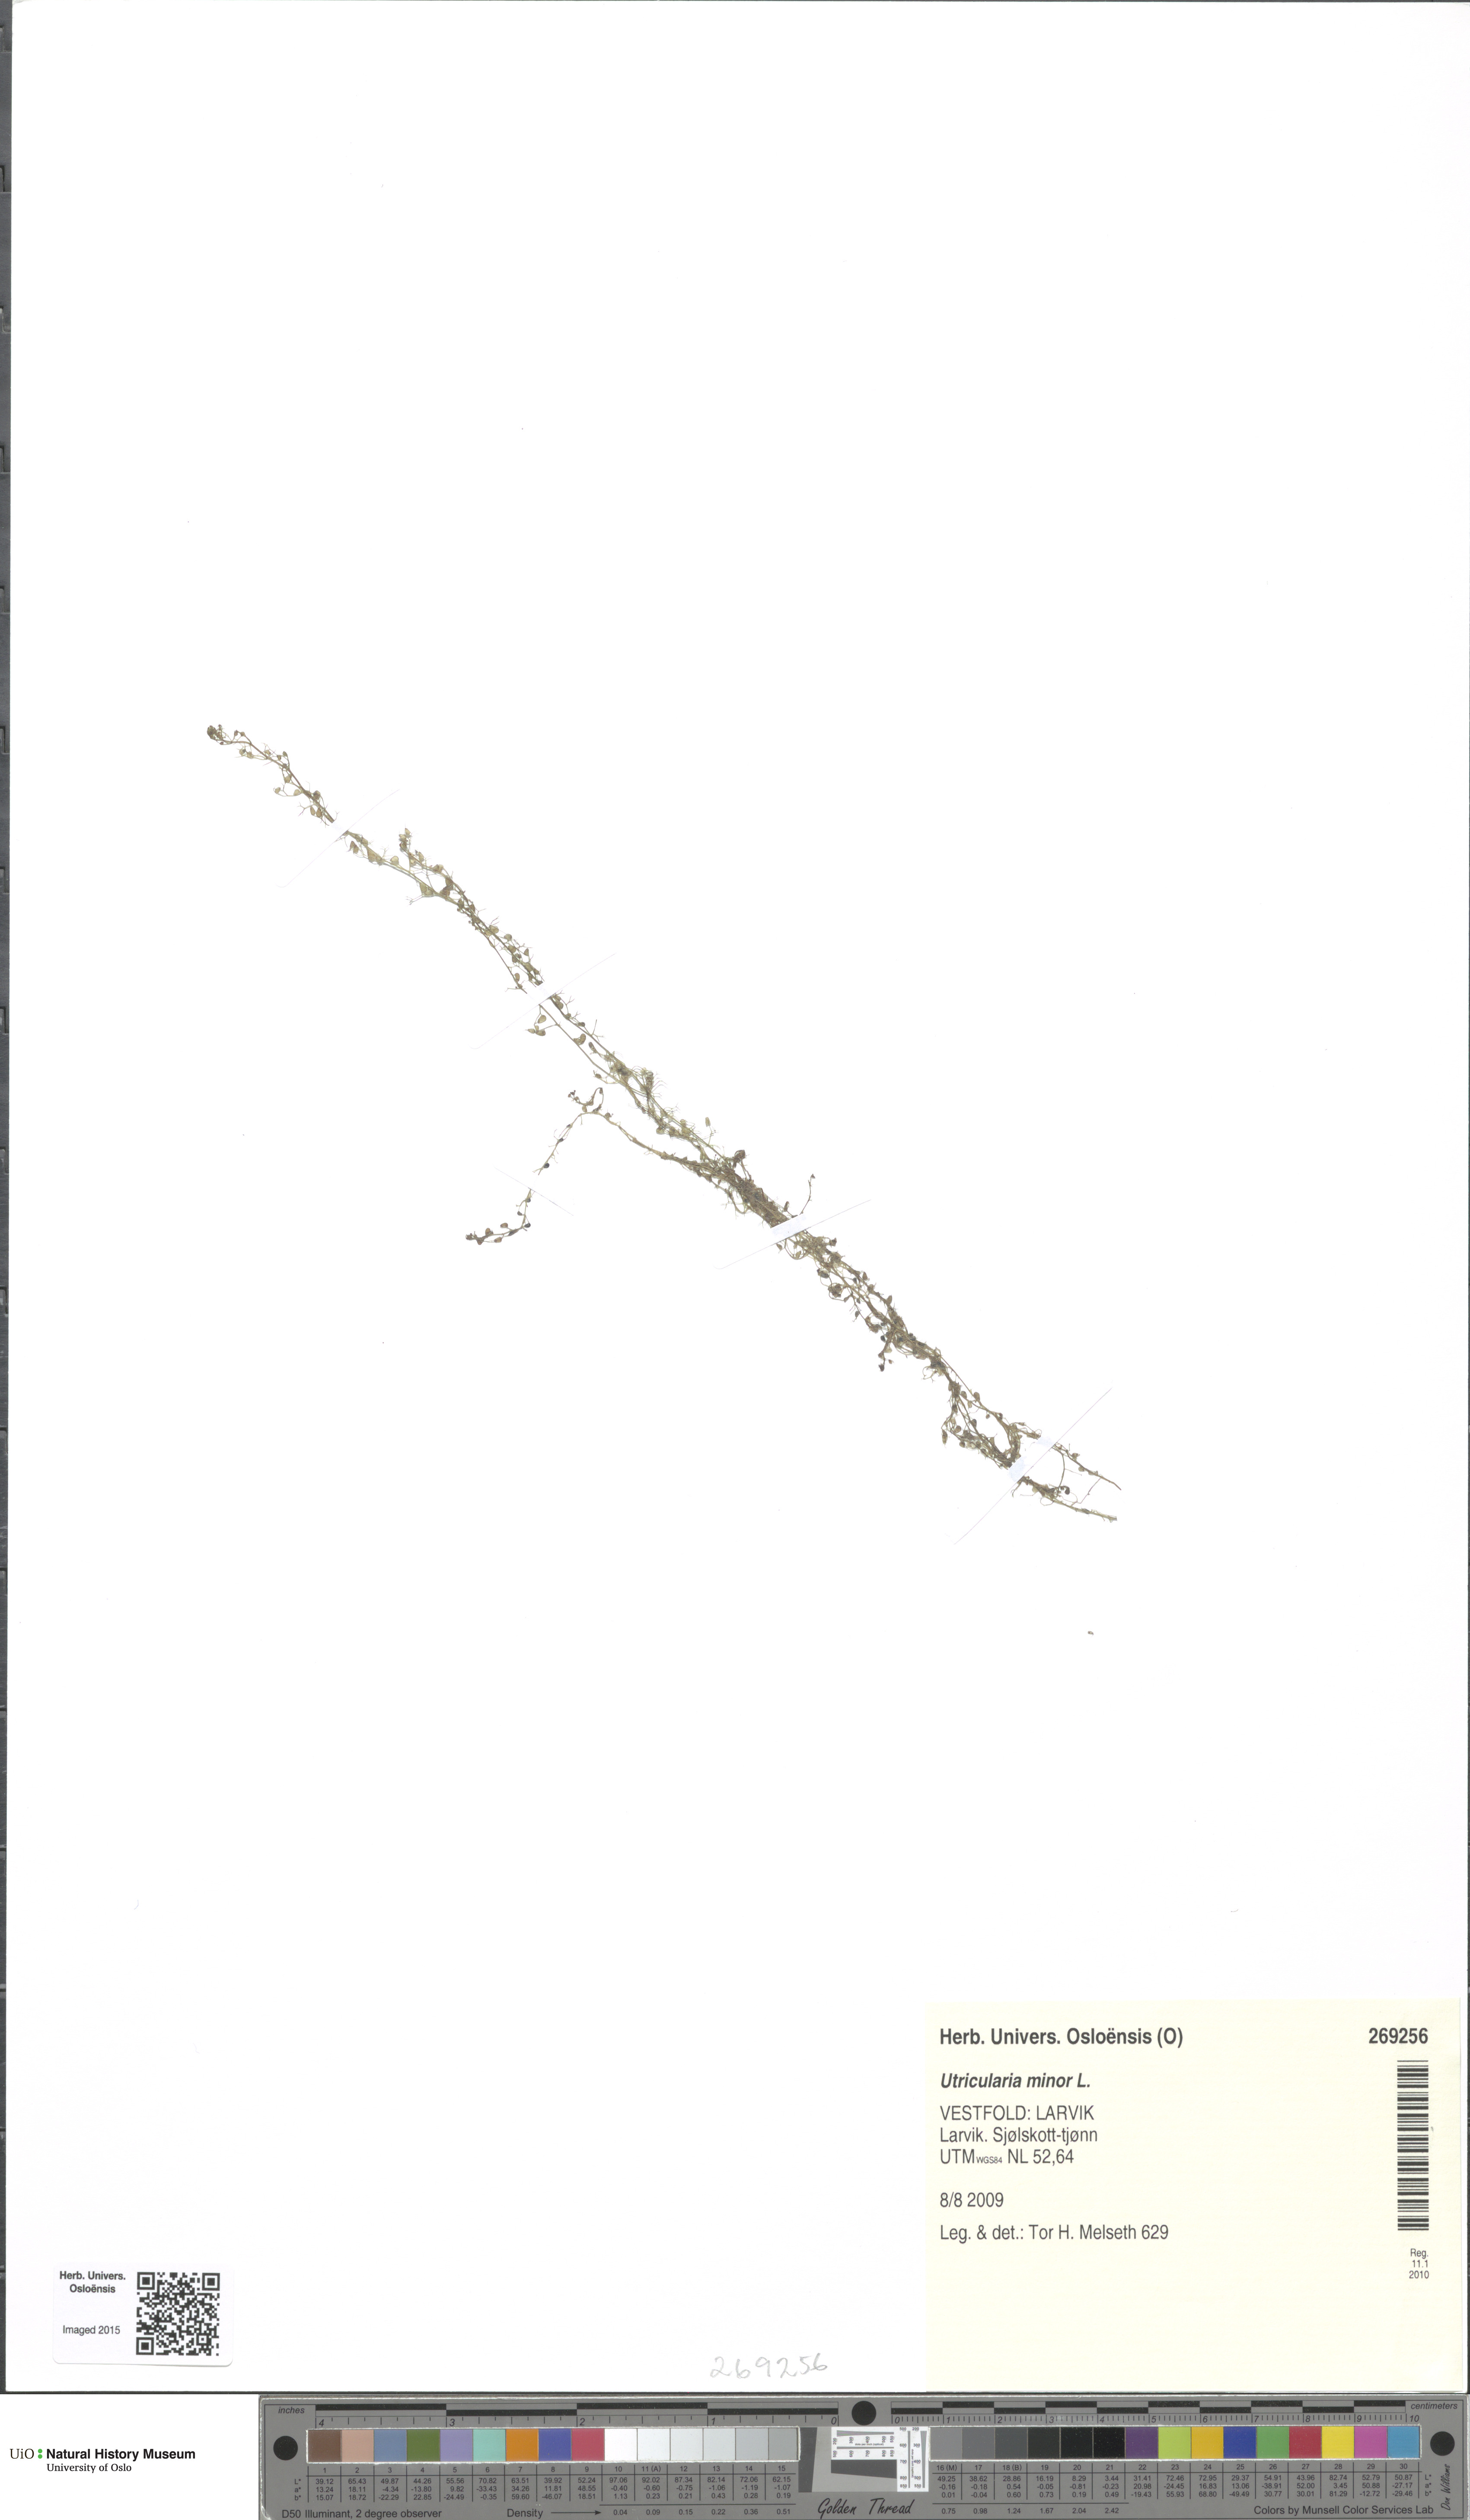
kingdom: Plantae
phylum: Tracheophyta
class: Magnoliopsida
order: Lamiales
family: Lentibulariaceae
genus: Utricularia
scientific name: Utricularia minor
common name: Lesser bladderwort
